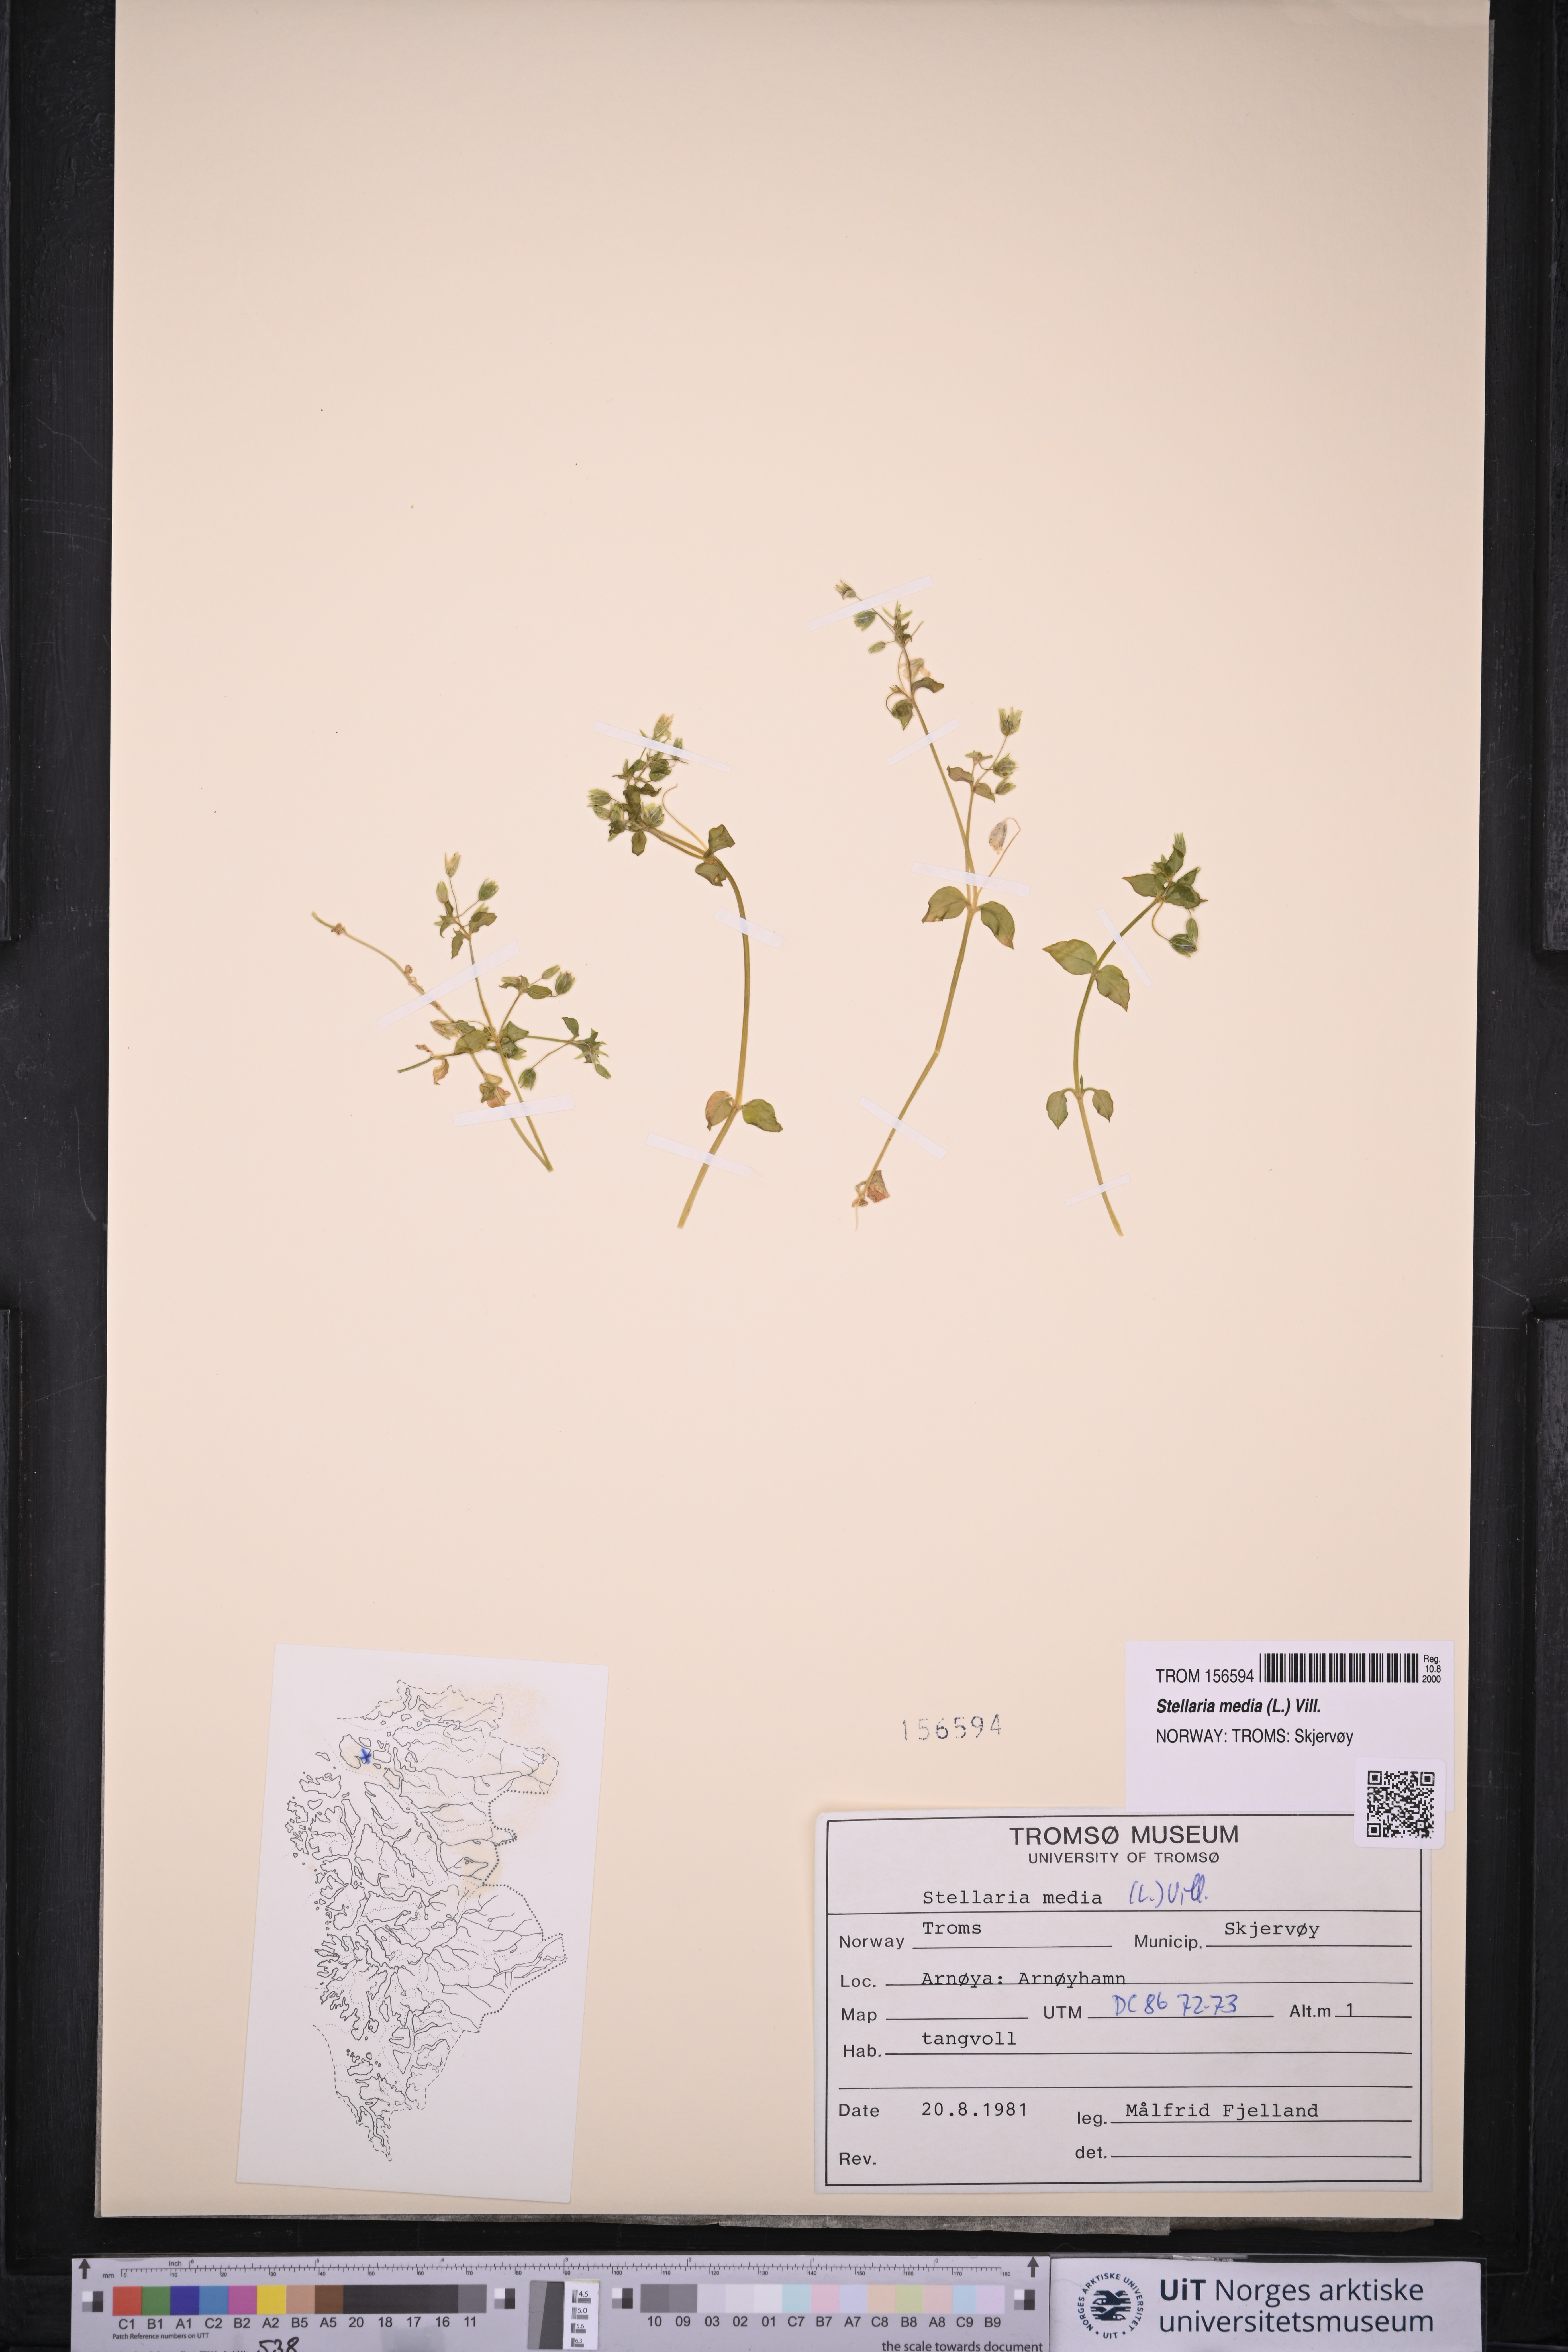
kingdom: Plantae
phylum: Tracheophyta
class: Magnoliopsida
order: Caryophyllales
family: Caryophyllaceae
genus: Stellaria
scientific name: Stellaria media
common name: Common chickweed
